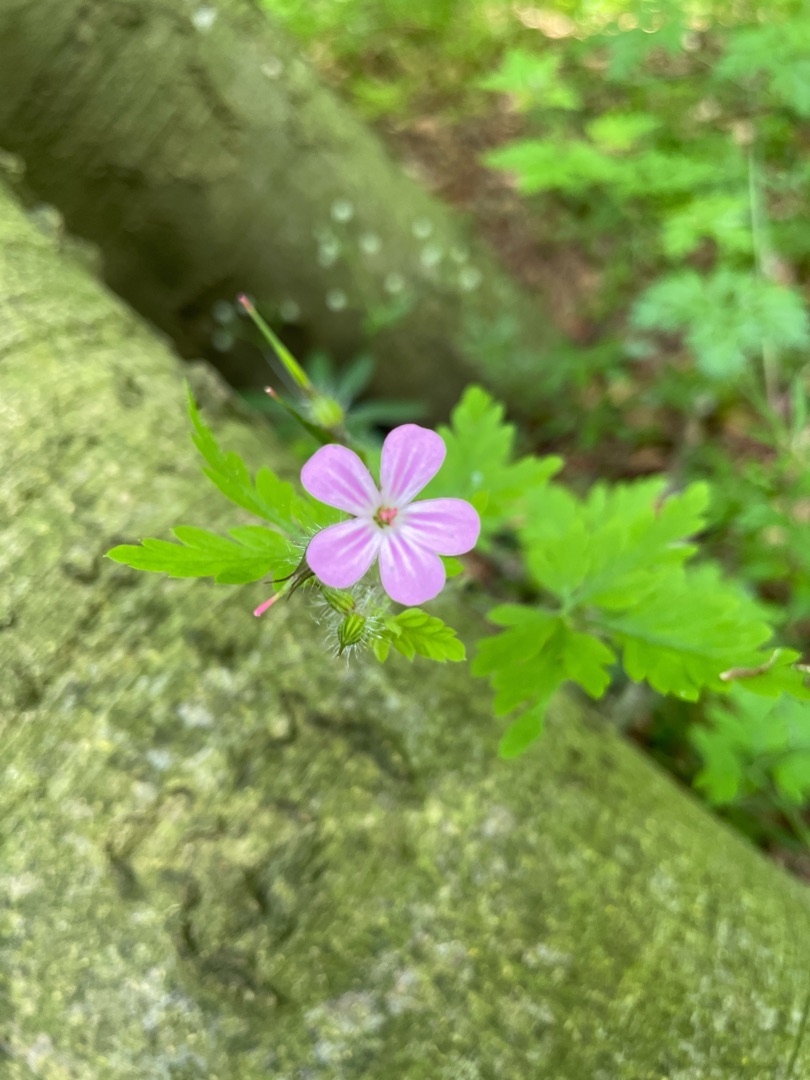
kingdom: Plantae
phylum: Tracheophyta
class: Magnoliopsida
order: Geraniales
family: Geraniaceae
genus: Geranium
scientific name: Geranium robertianum
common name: Stinkende storkenæb
